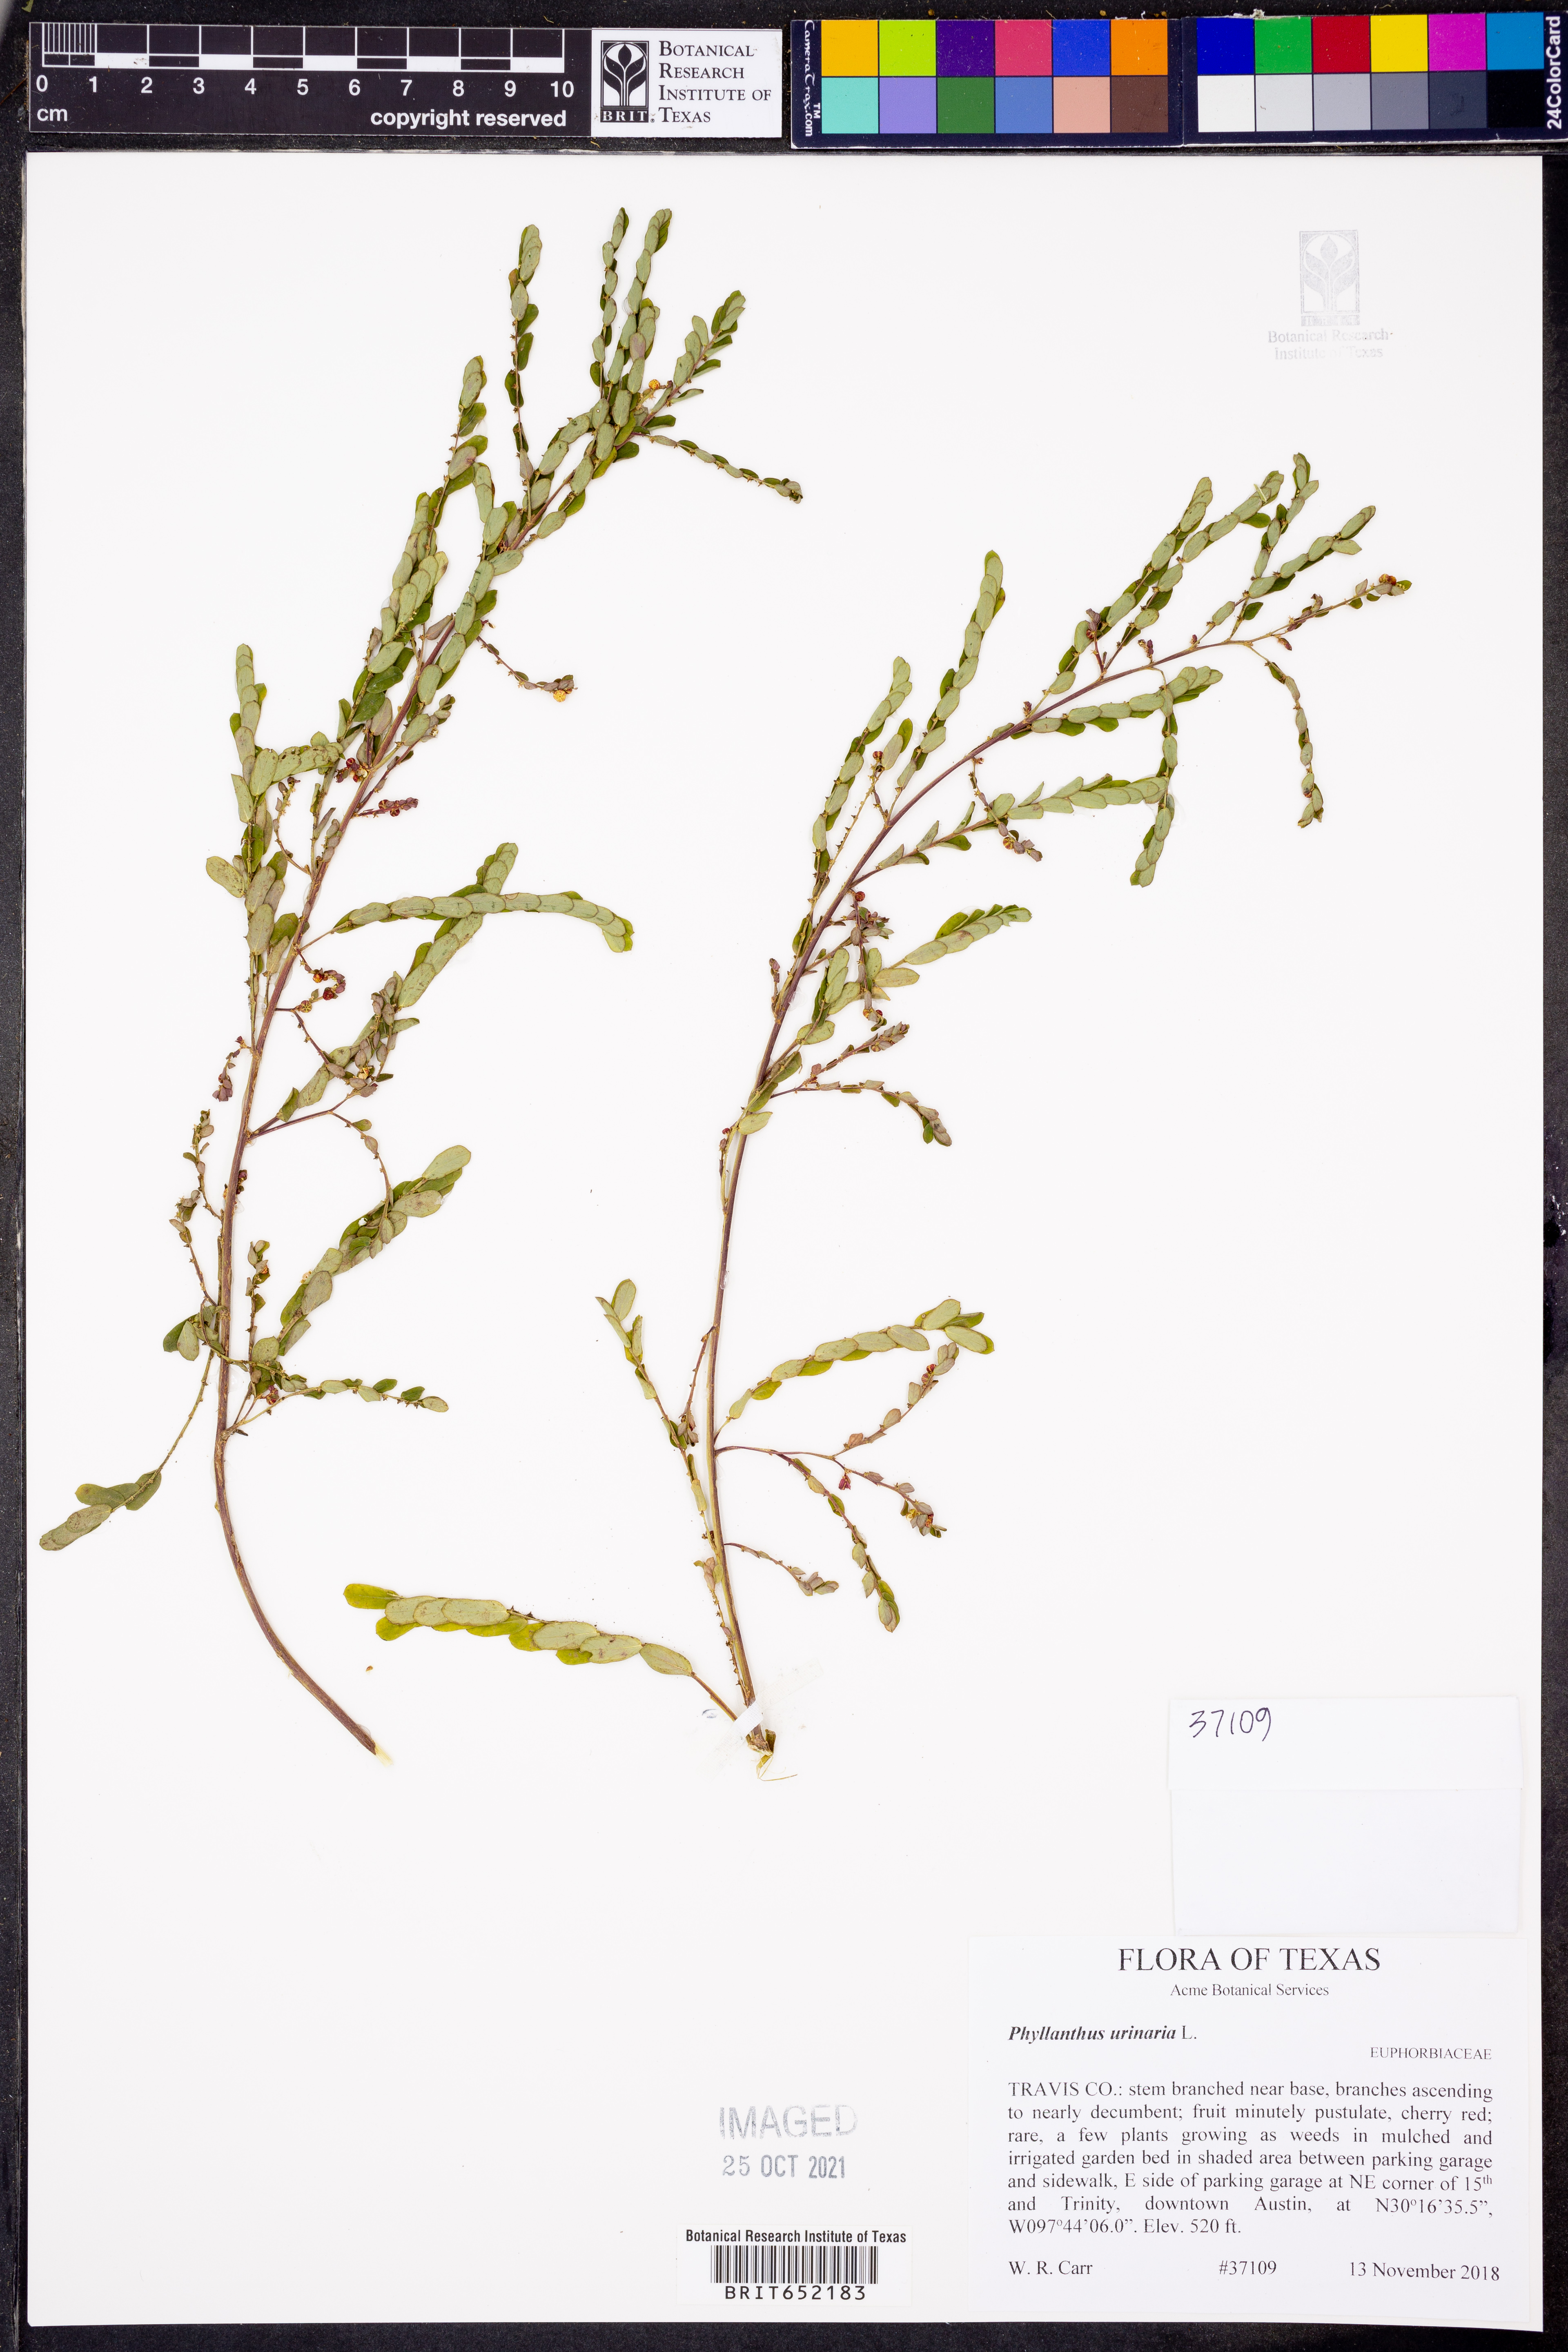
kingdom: Plantae
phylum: Tracheophyta
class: Magnoliopsida
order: Malpighiales
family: Phyllanthaceae
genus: Phyllanthus
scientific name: Phyllanthus urinaria
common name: Chamber bitter
